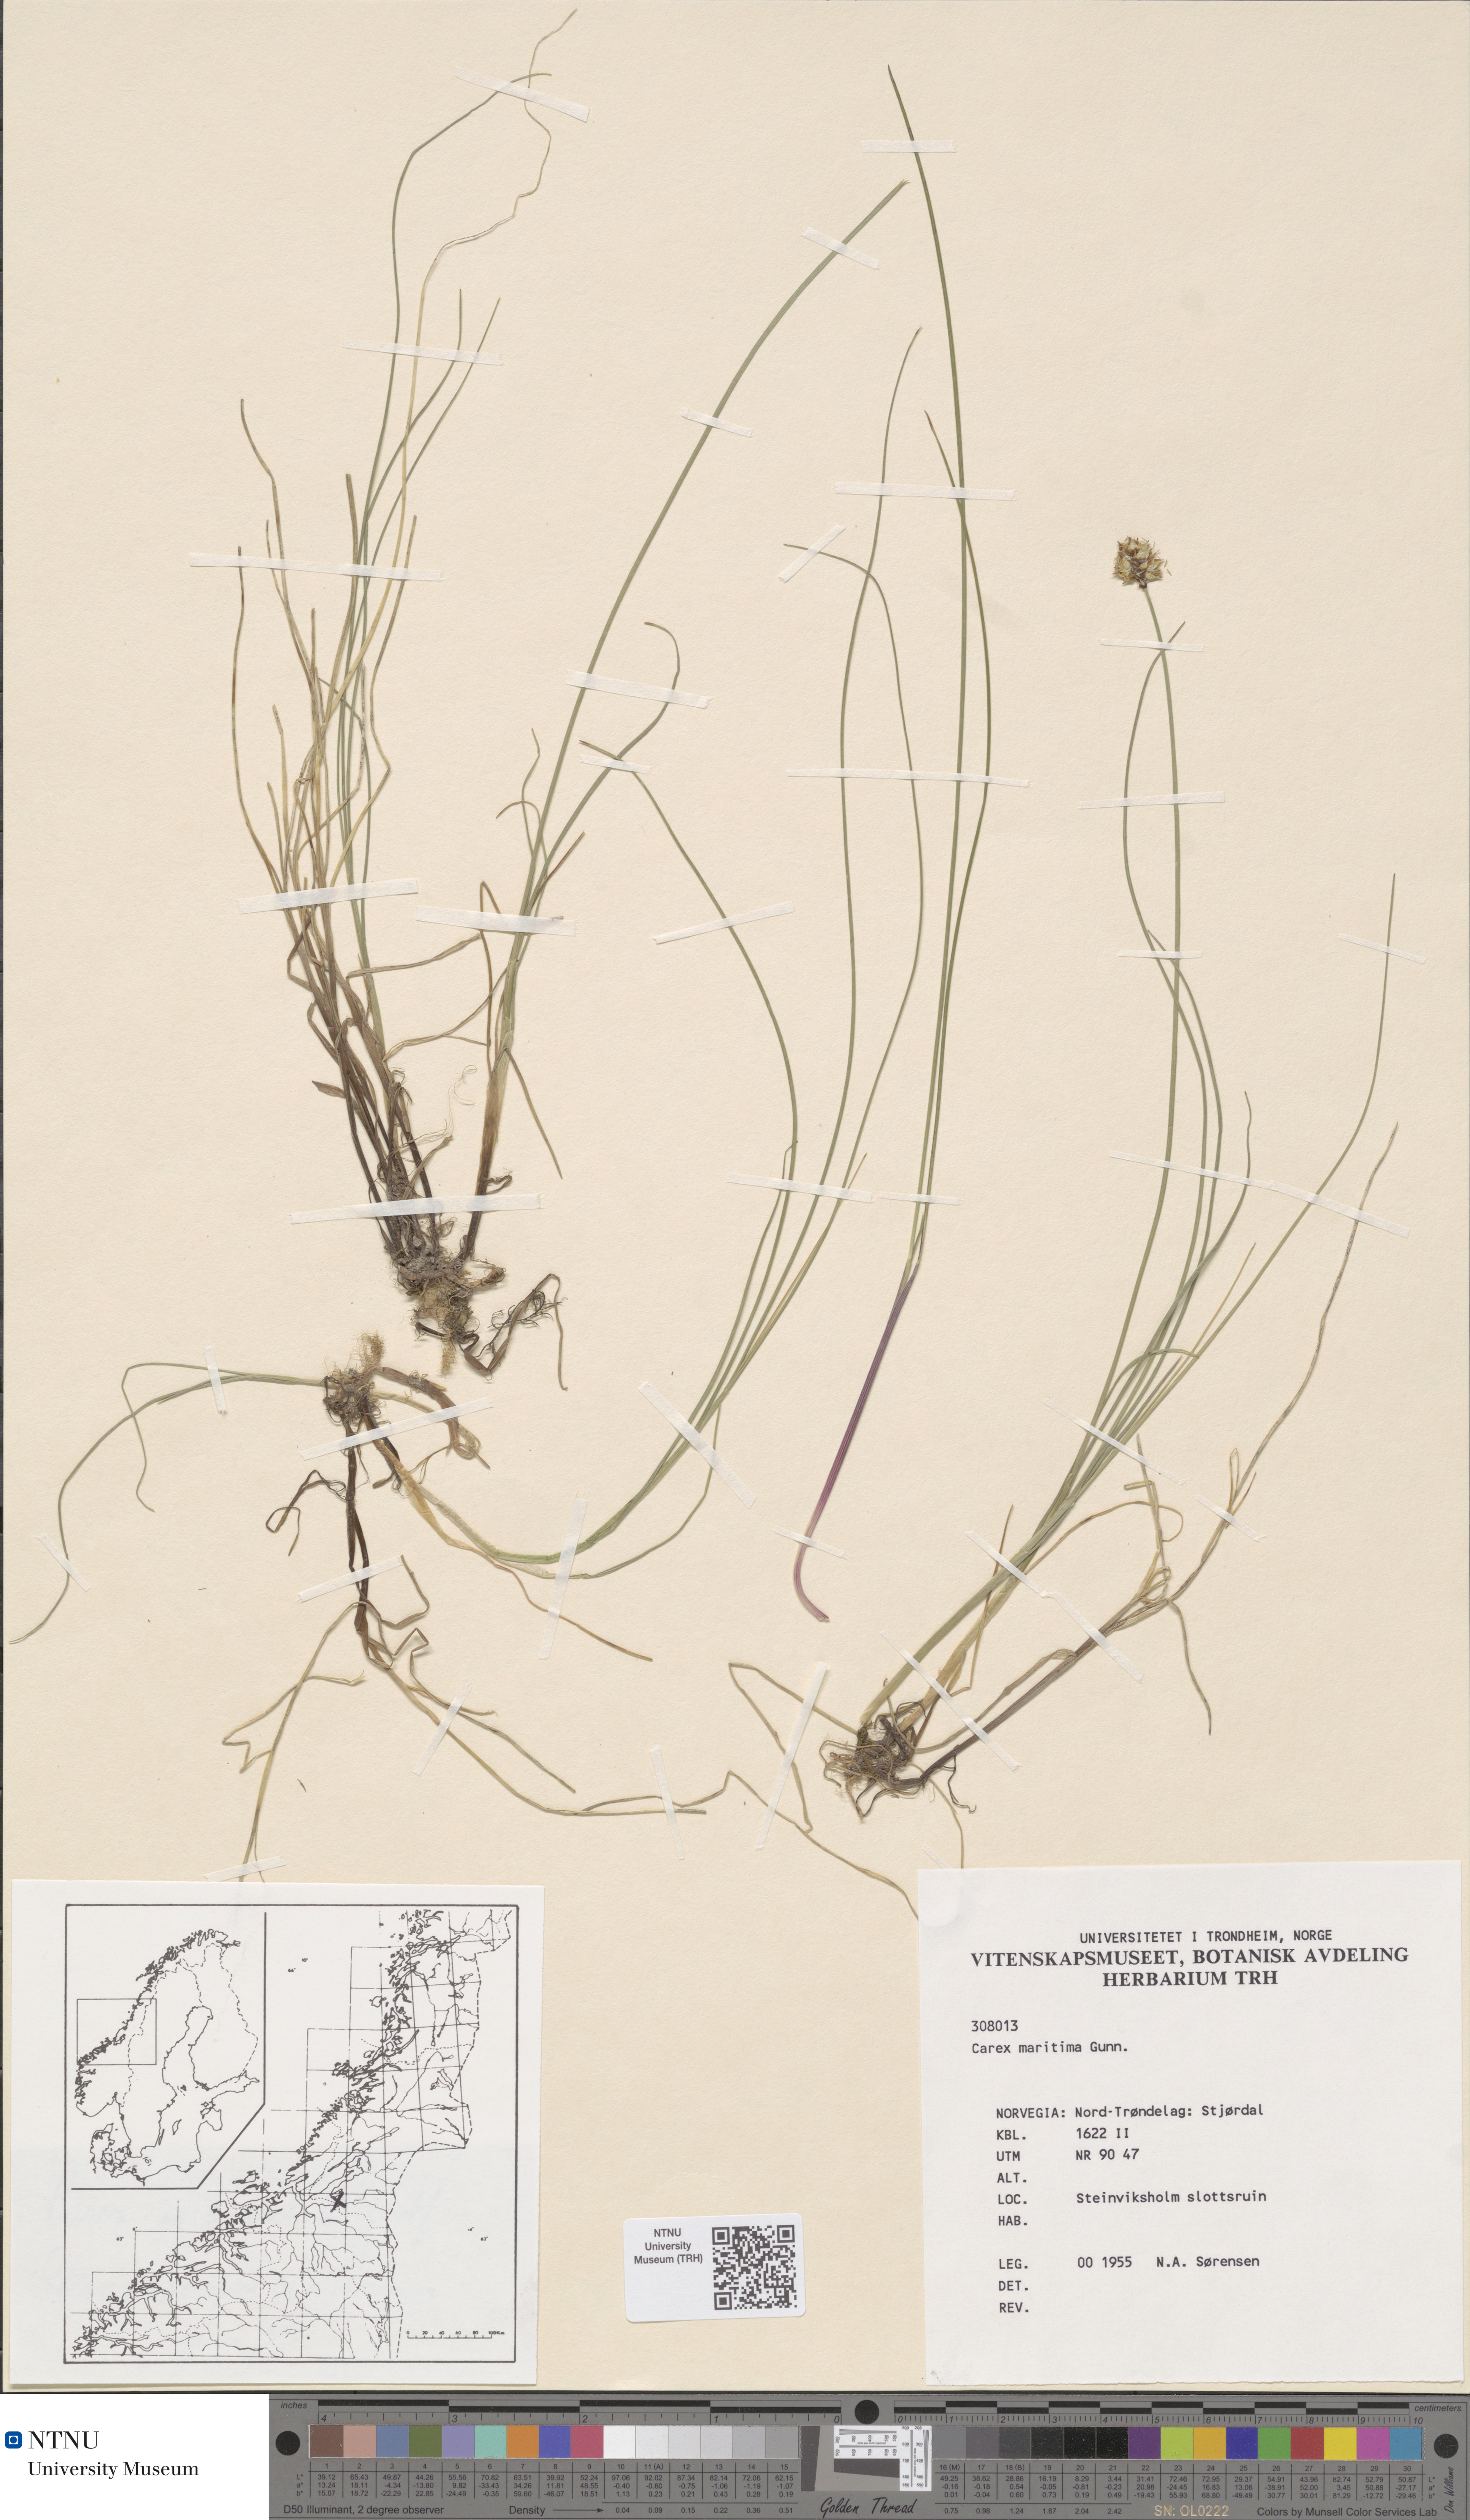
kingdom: Plantae
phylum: Tracheophyta
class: Liliopsida
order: Poales
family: Cyperaceae
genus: Carex
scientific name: Carex maritima
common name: Curved sedge
